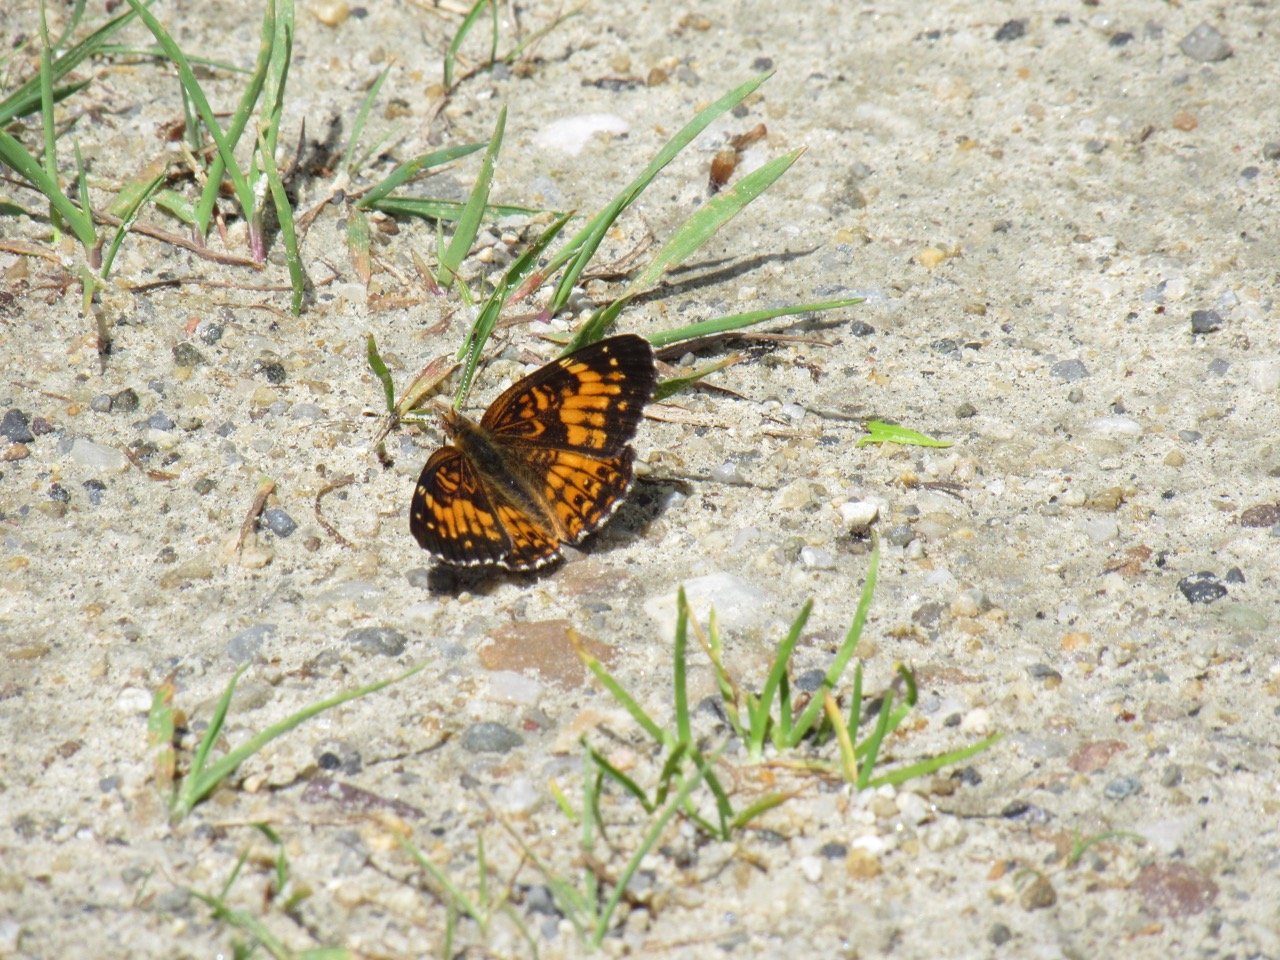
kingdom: Animalia
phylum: Arthropoda
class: Insecta
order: Lepidoptera
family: Nymphalidae
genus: Chlosyne
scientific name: Chlosyne harrisii
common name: Harris's Checkerspot
